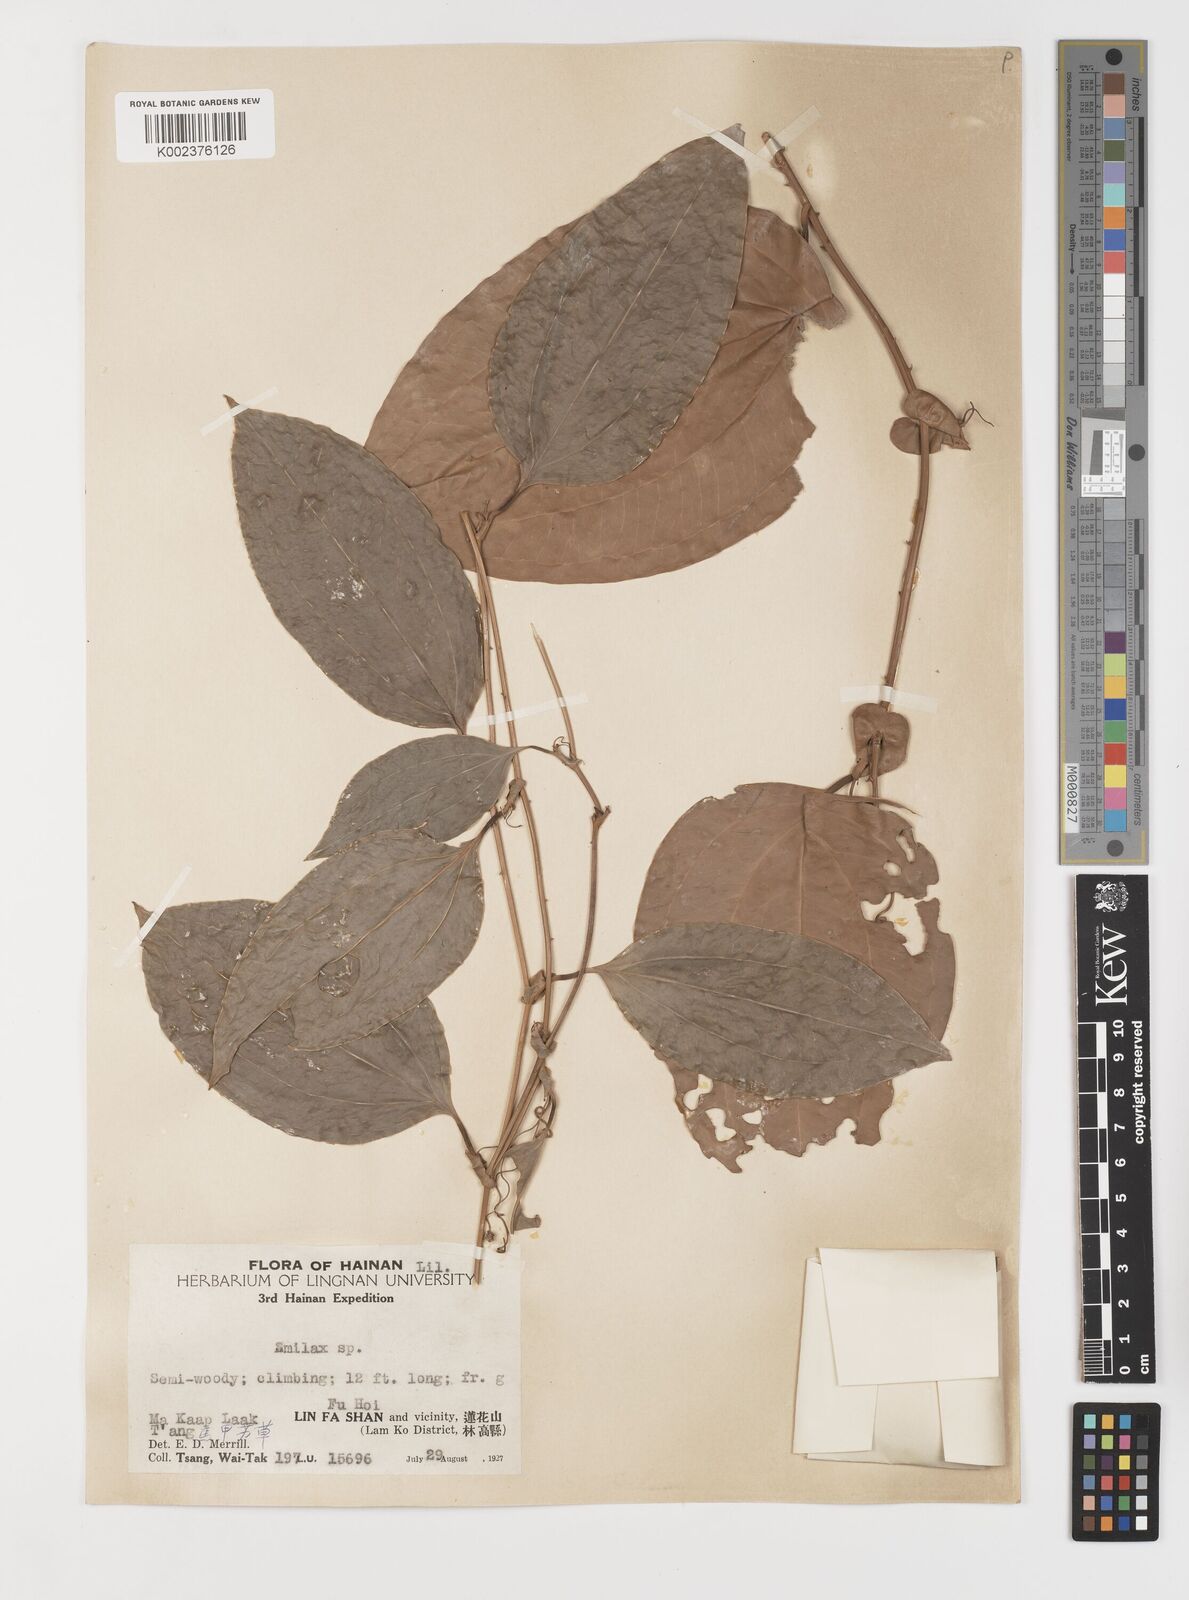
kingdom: Plantae
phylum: Tracheophyta
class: Liliopsida
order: Liliales
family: Smilacaceae
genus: Smilax
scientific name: Smilax ovalifolia
